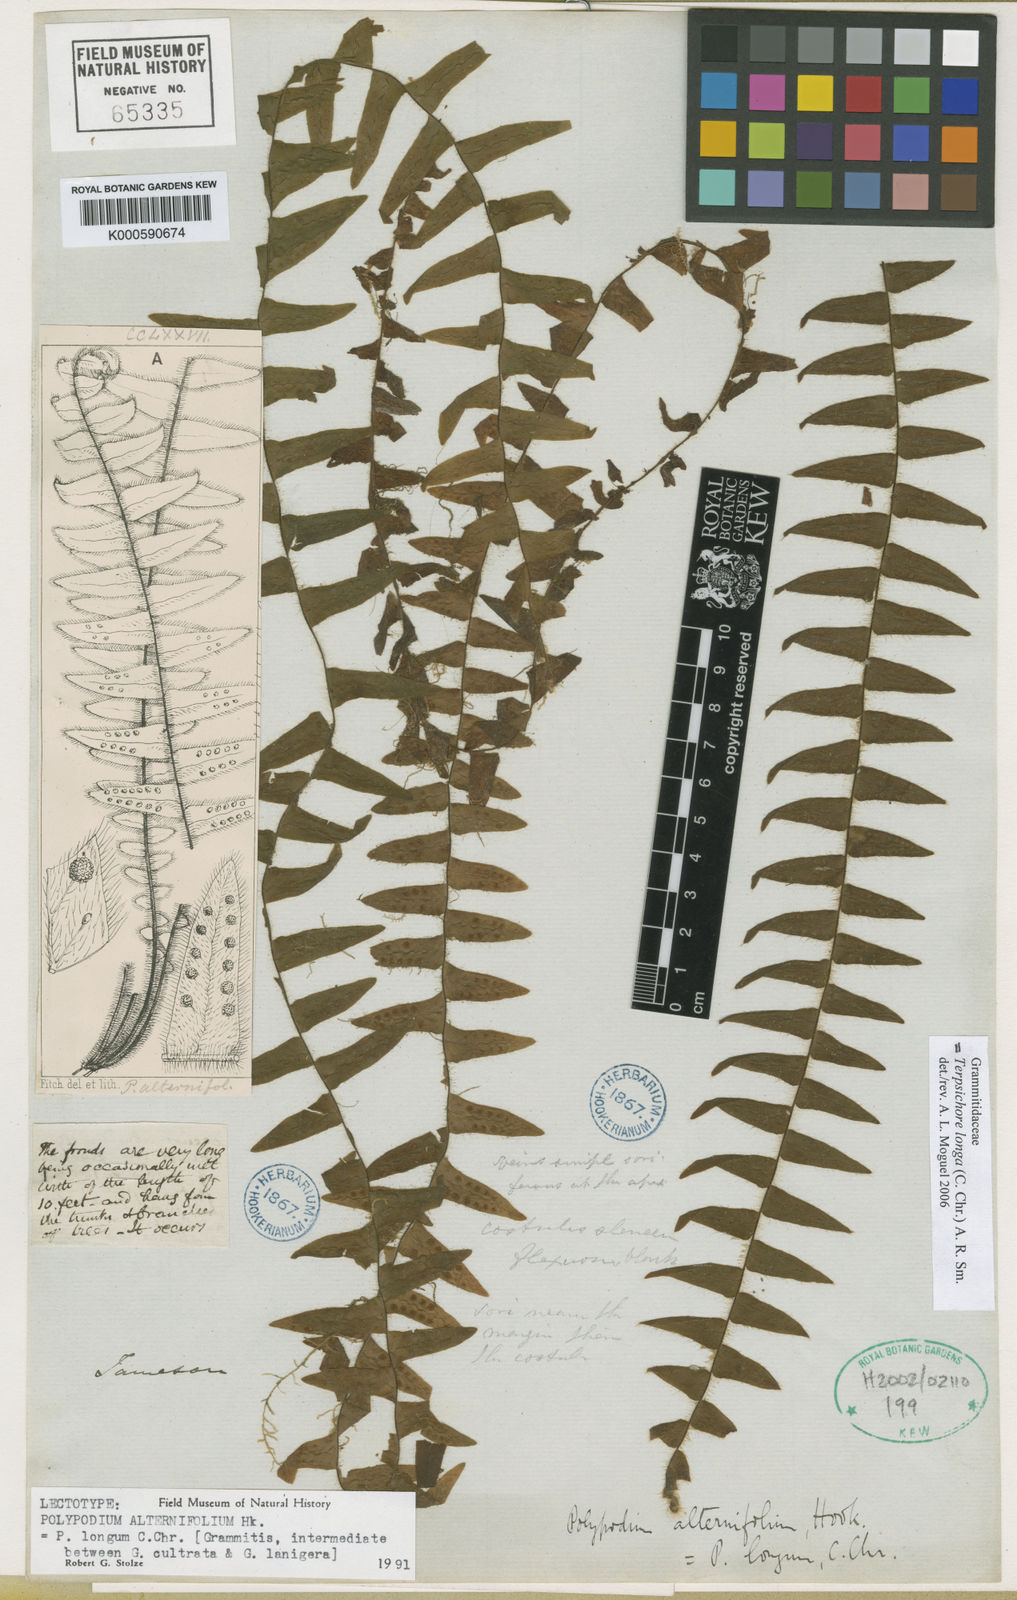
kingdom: Plantae
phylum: Tracheophyta
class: Polypodiopsida
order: Polypodiales
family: Polypodiaceae
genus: Alansmia
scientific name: Alansmia longa
